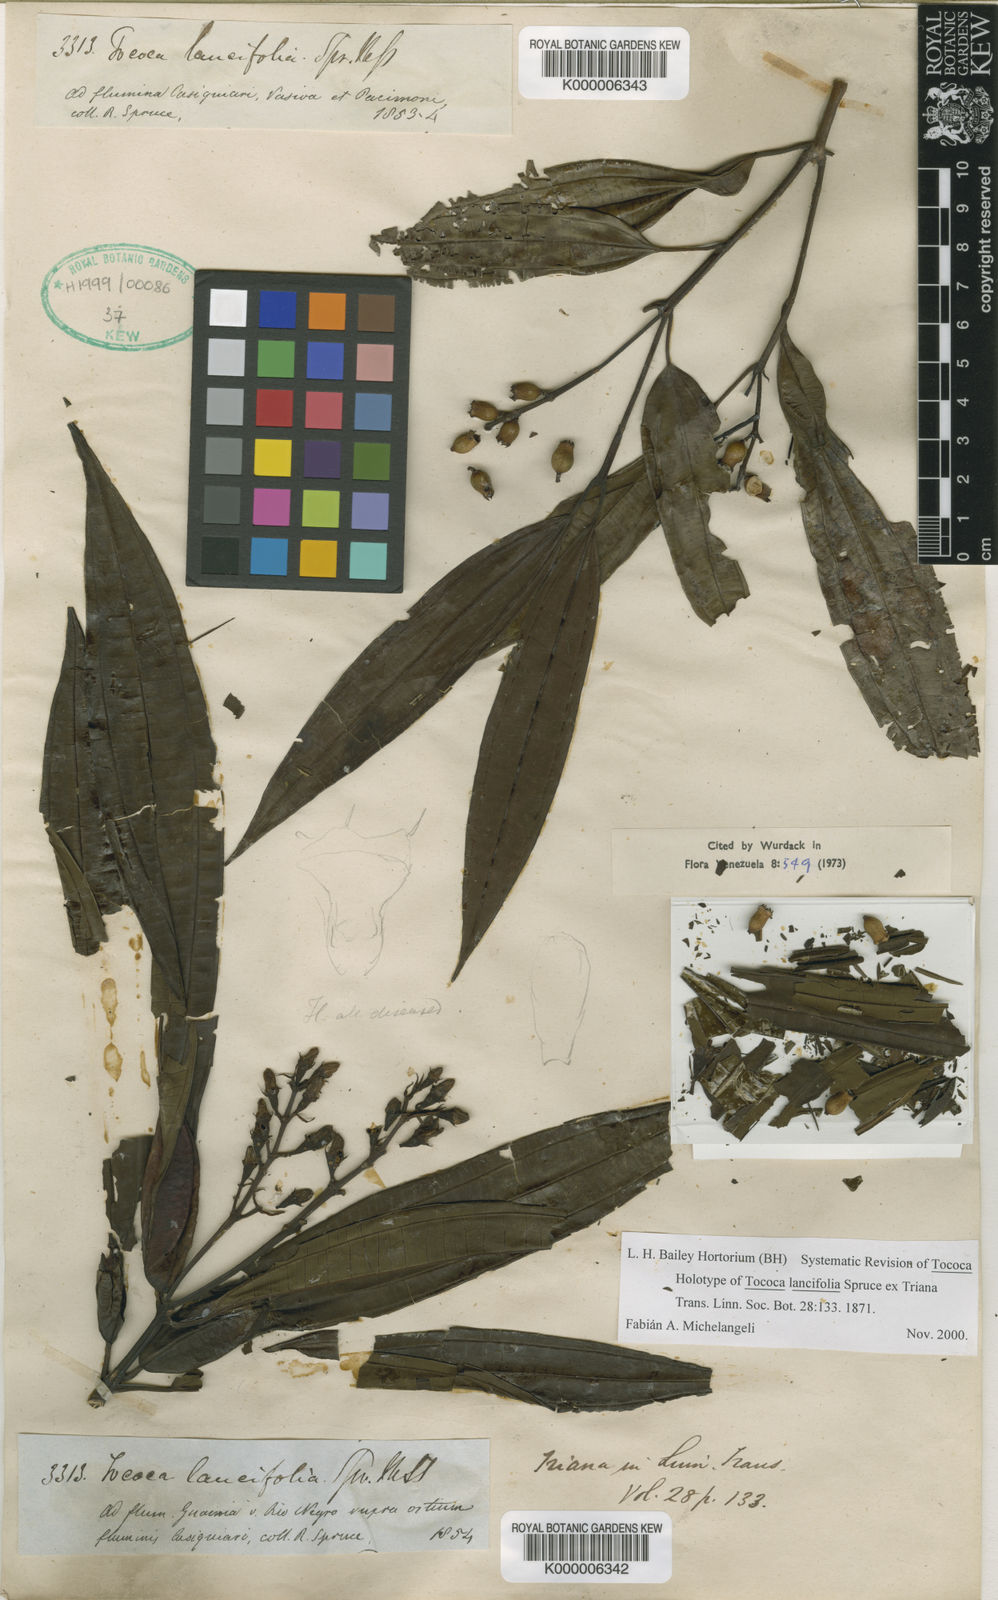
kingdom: Plantae
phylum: Tracheophyta
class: Magnoliopsida
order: Myrtales
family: Melastomataceae
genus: Miconia
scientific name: Miconia lancifolia
